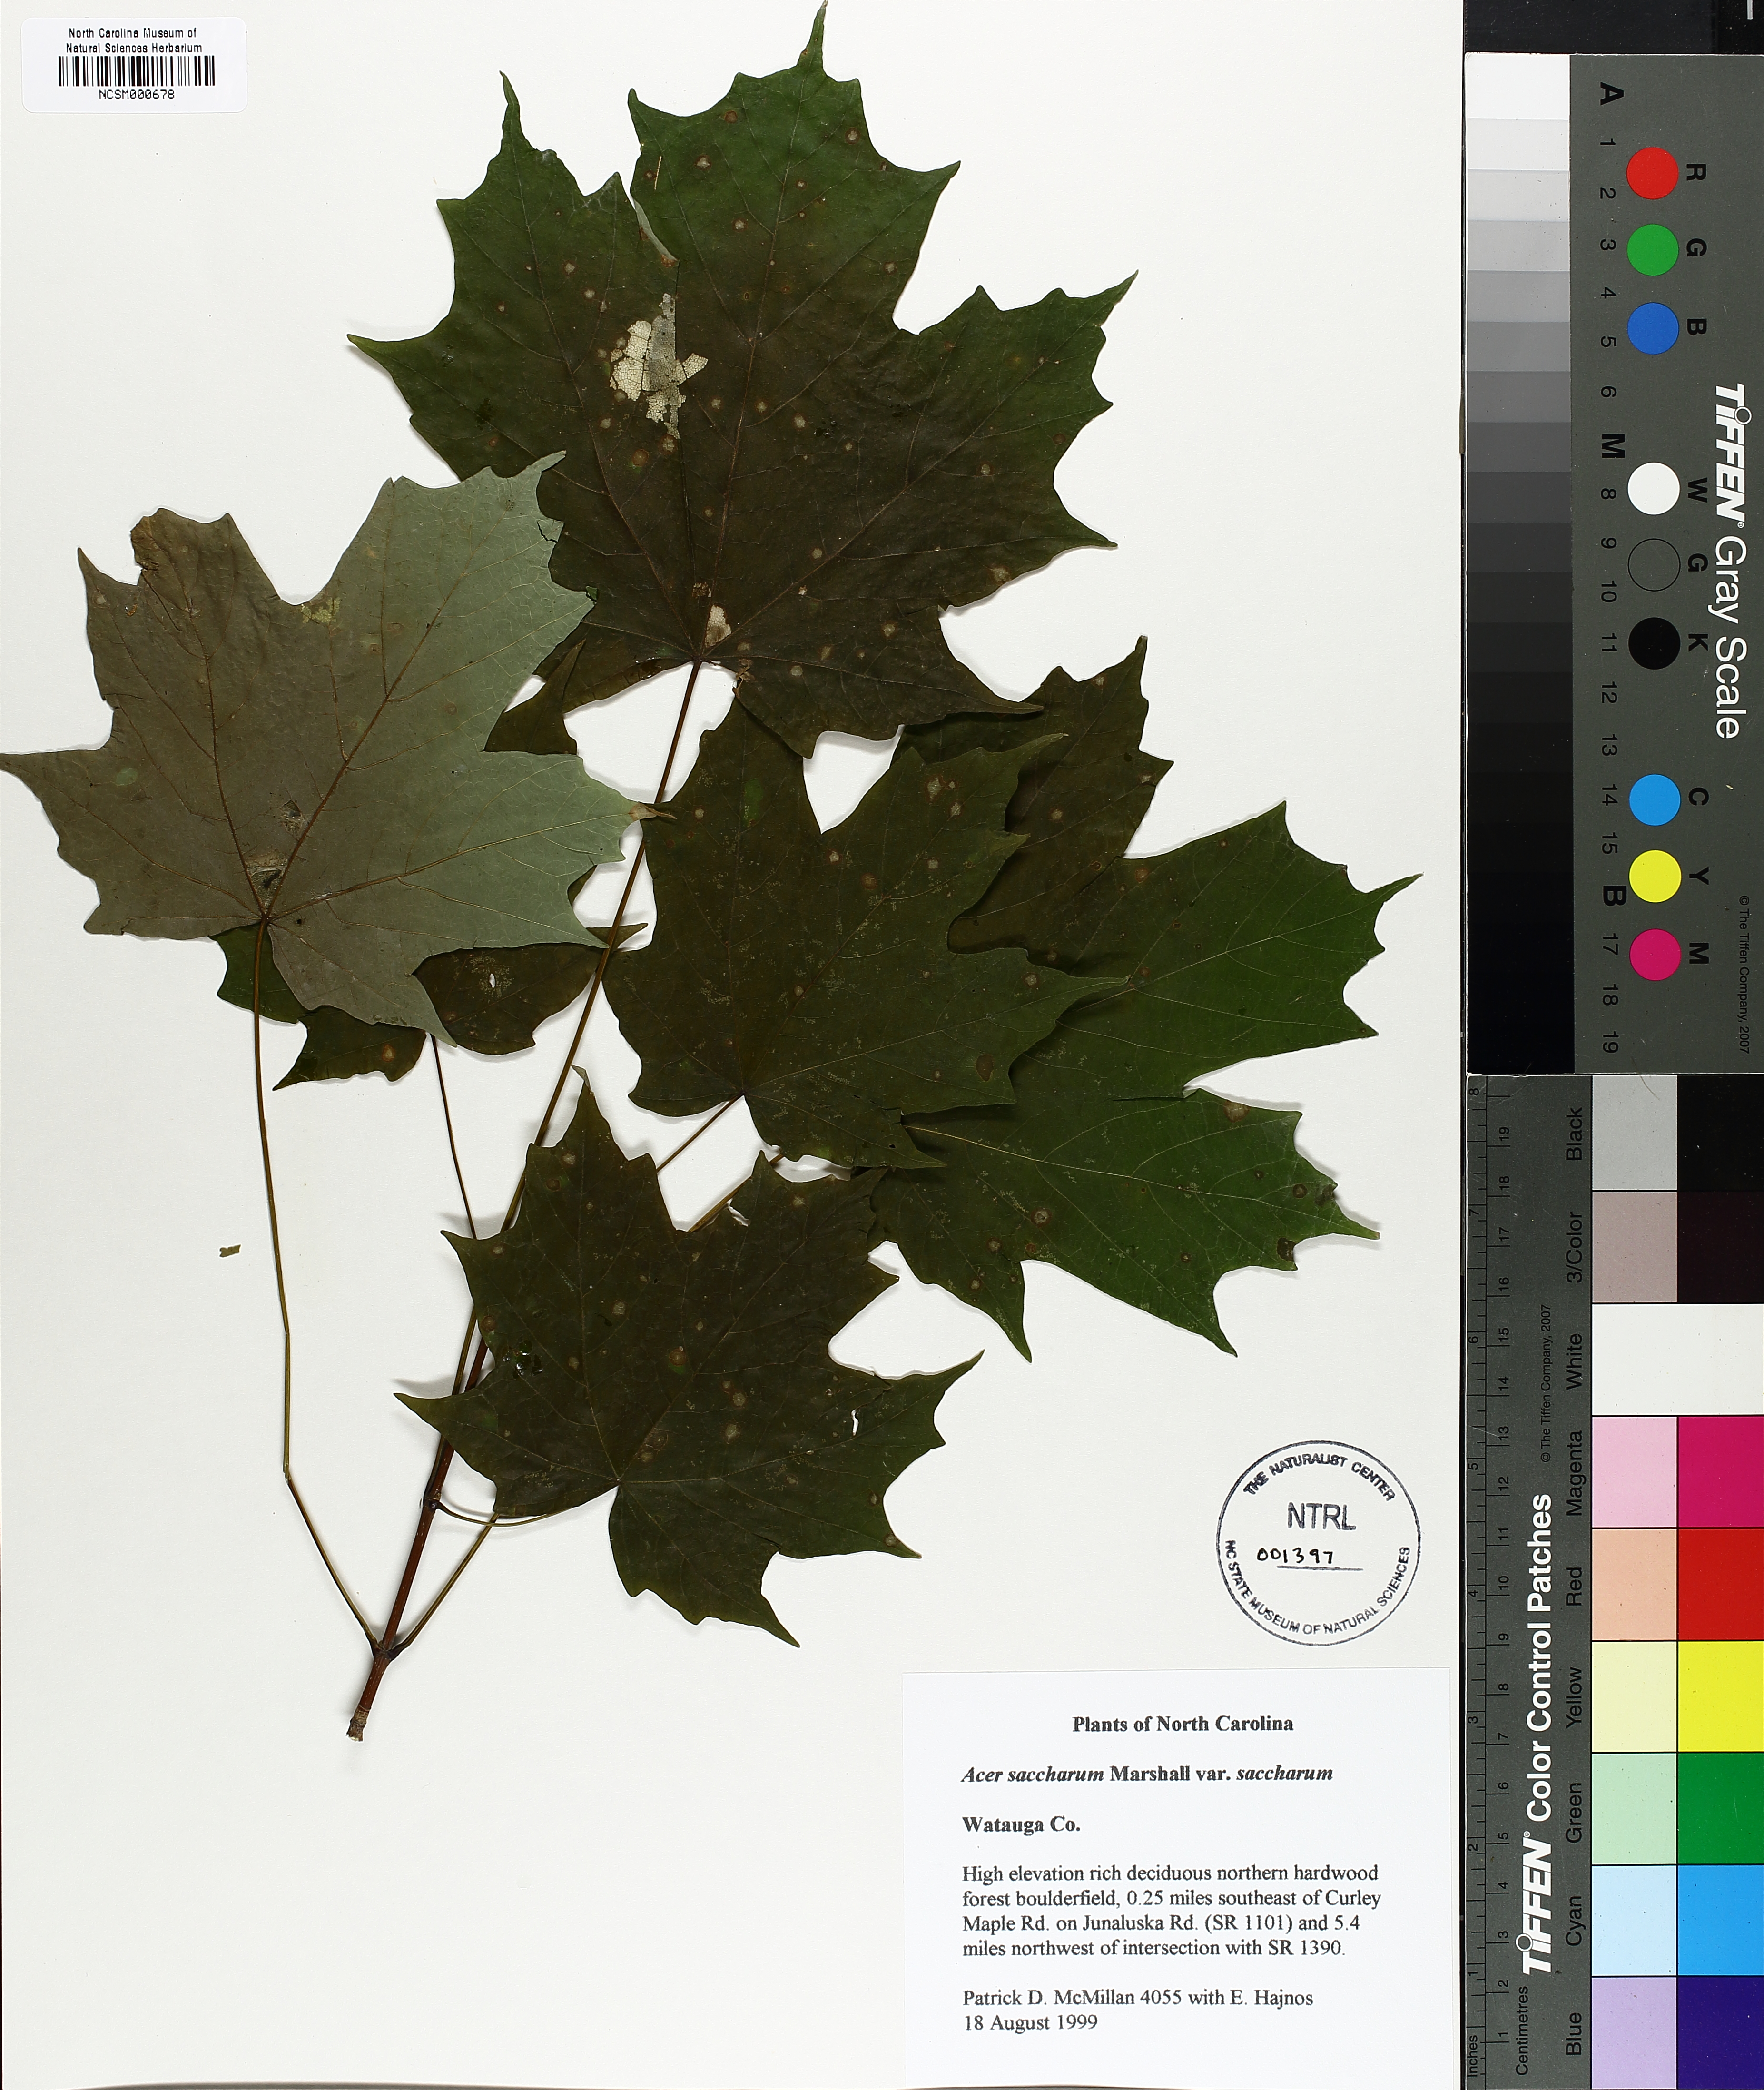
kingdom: Plantae
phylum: Tracheophyta
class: Magnoliopsida
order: Sapindales
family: Sapindaceae
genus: Acer
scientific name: Acer saccharum
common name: Sugar maple
